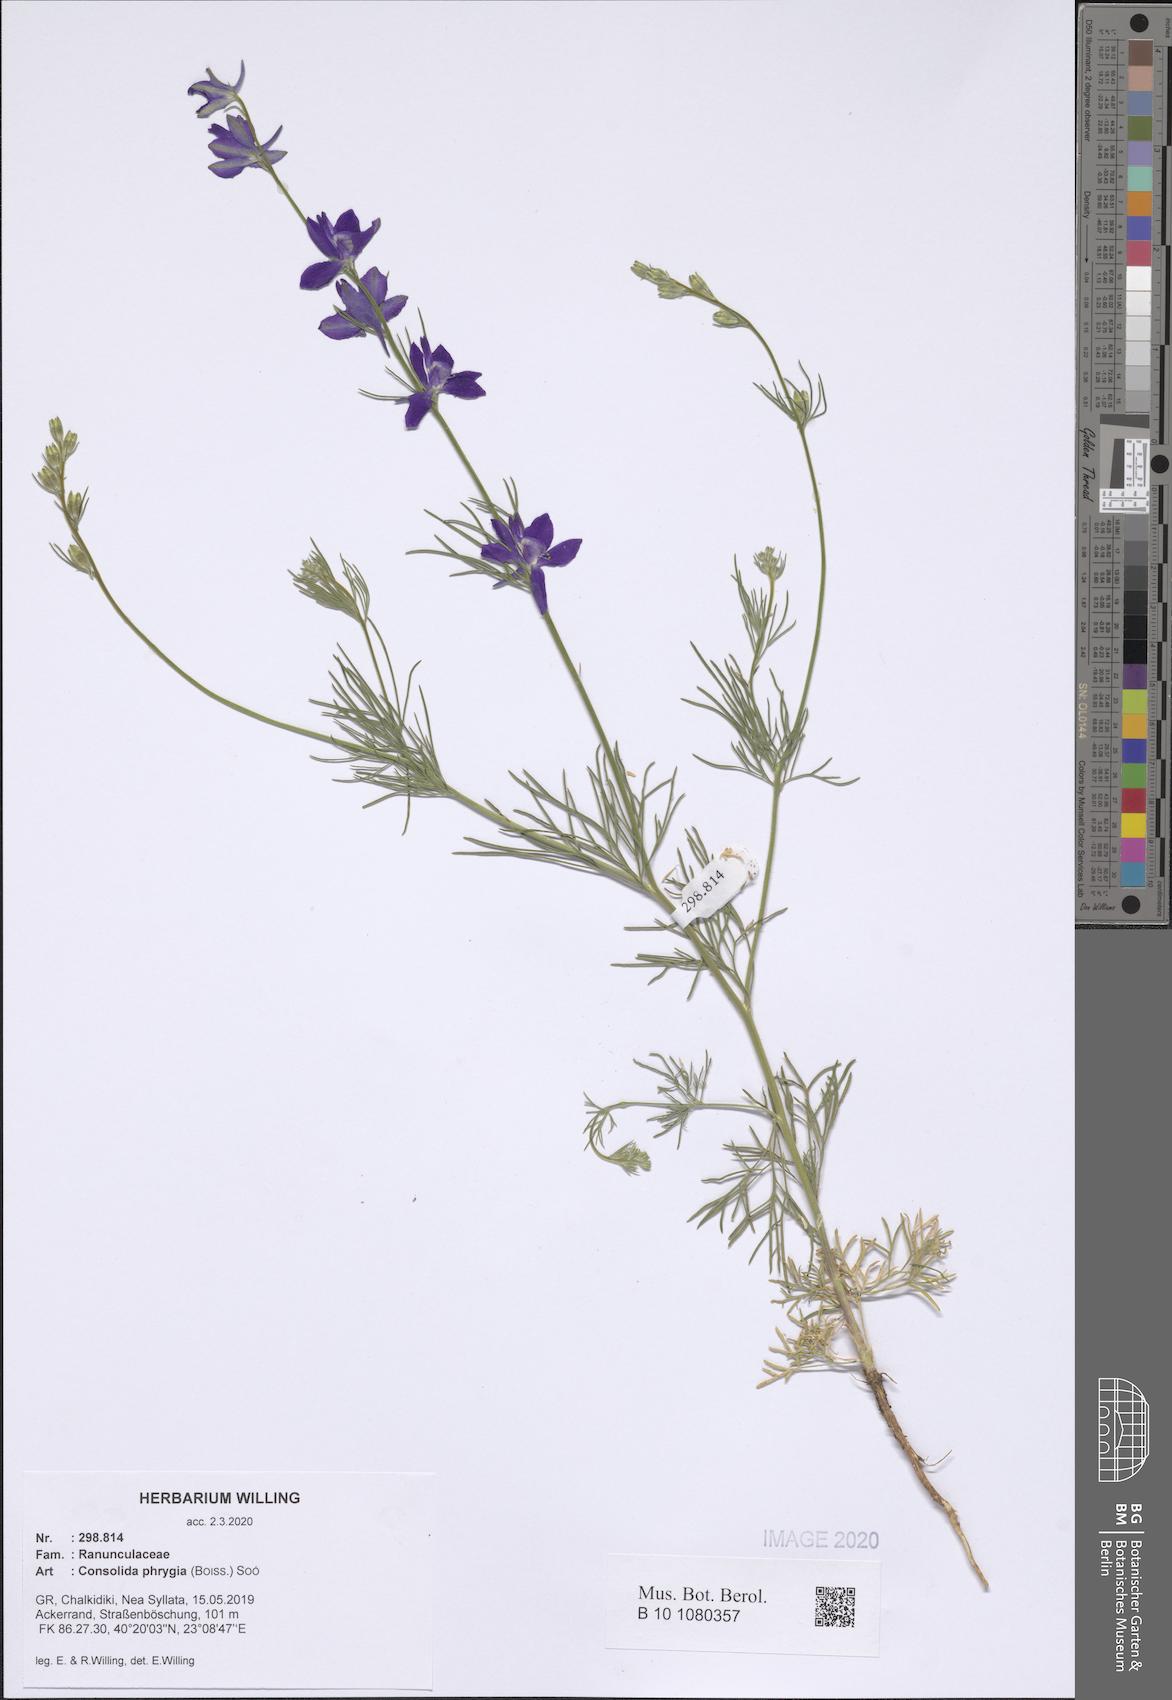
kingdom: Plantae
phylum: Tracheophyta
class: Magnoliopsida
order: Ranunculales
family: Ranunculaceae
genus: Delphinium
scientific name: Delphinium phrygium
